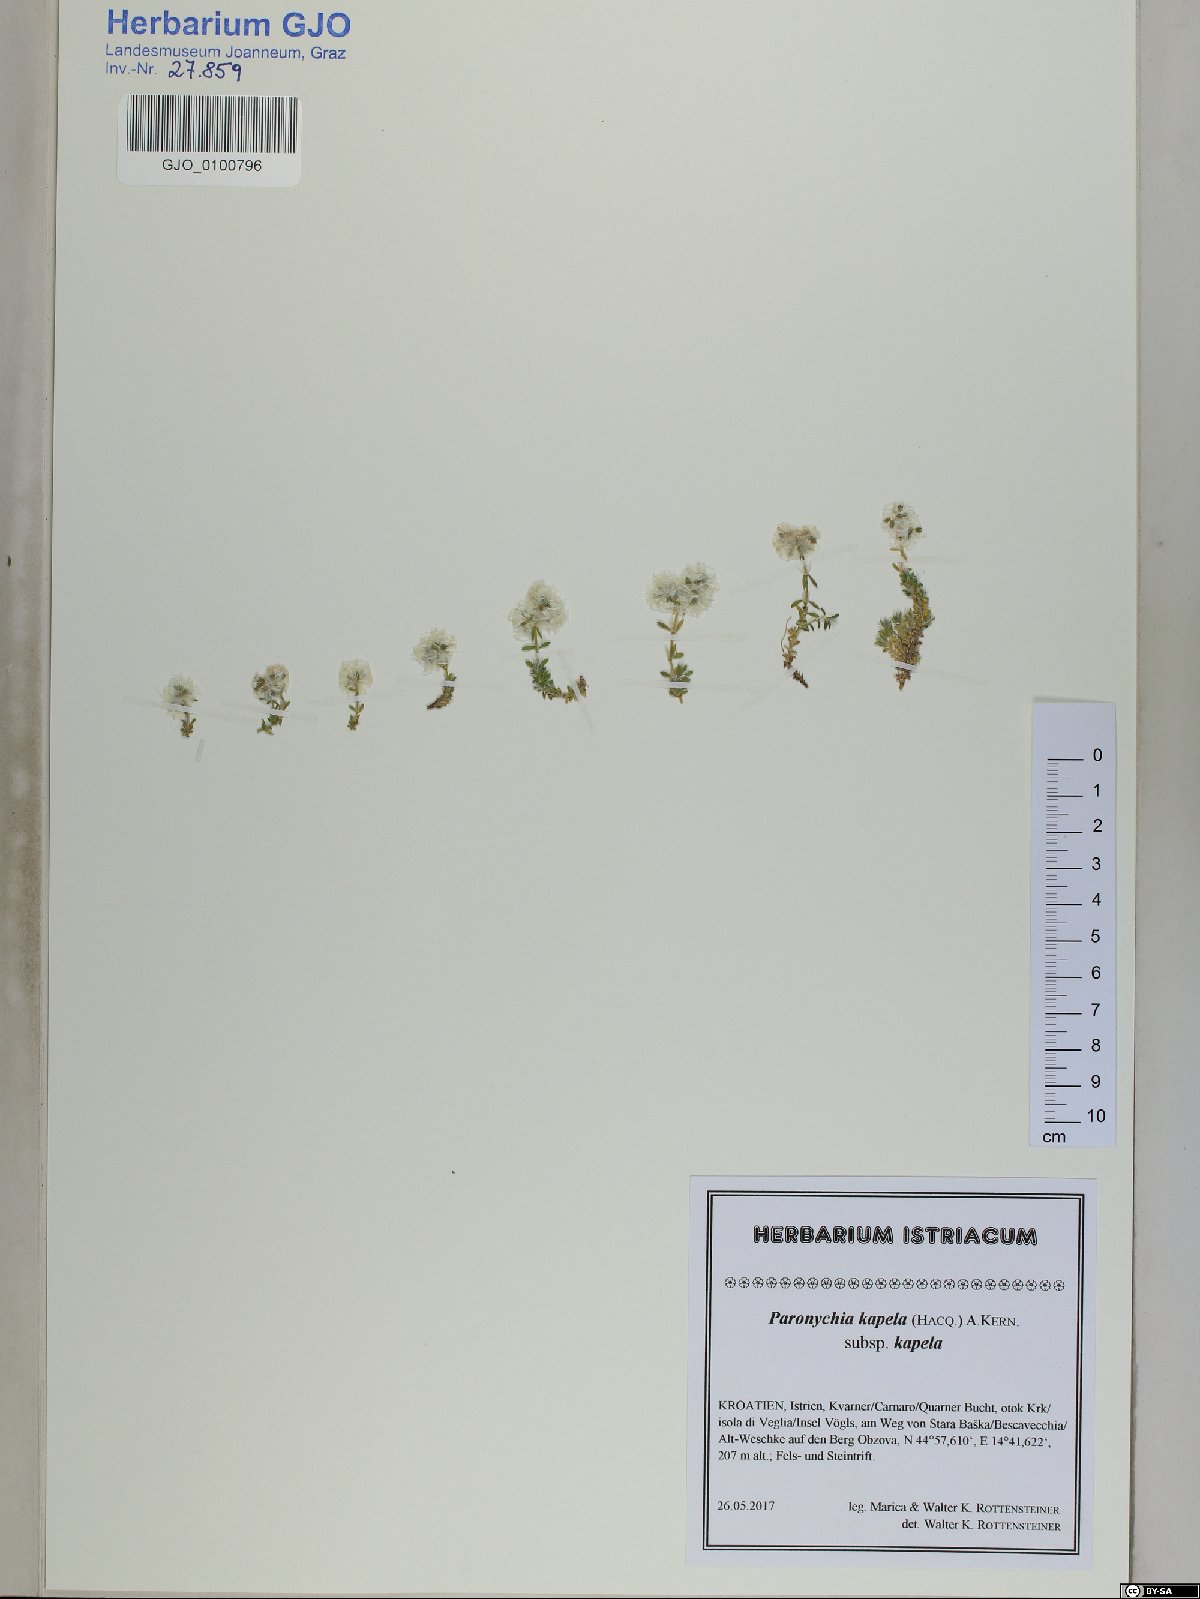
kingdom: Plantae
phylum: Tracheophyta
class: Magnoliopsida
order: Caryophyllales
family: Caryophyllaceae
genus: Paronychia
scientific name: Paronychia kapela
